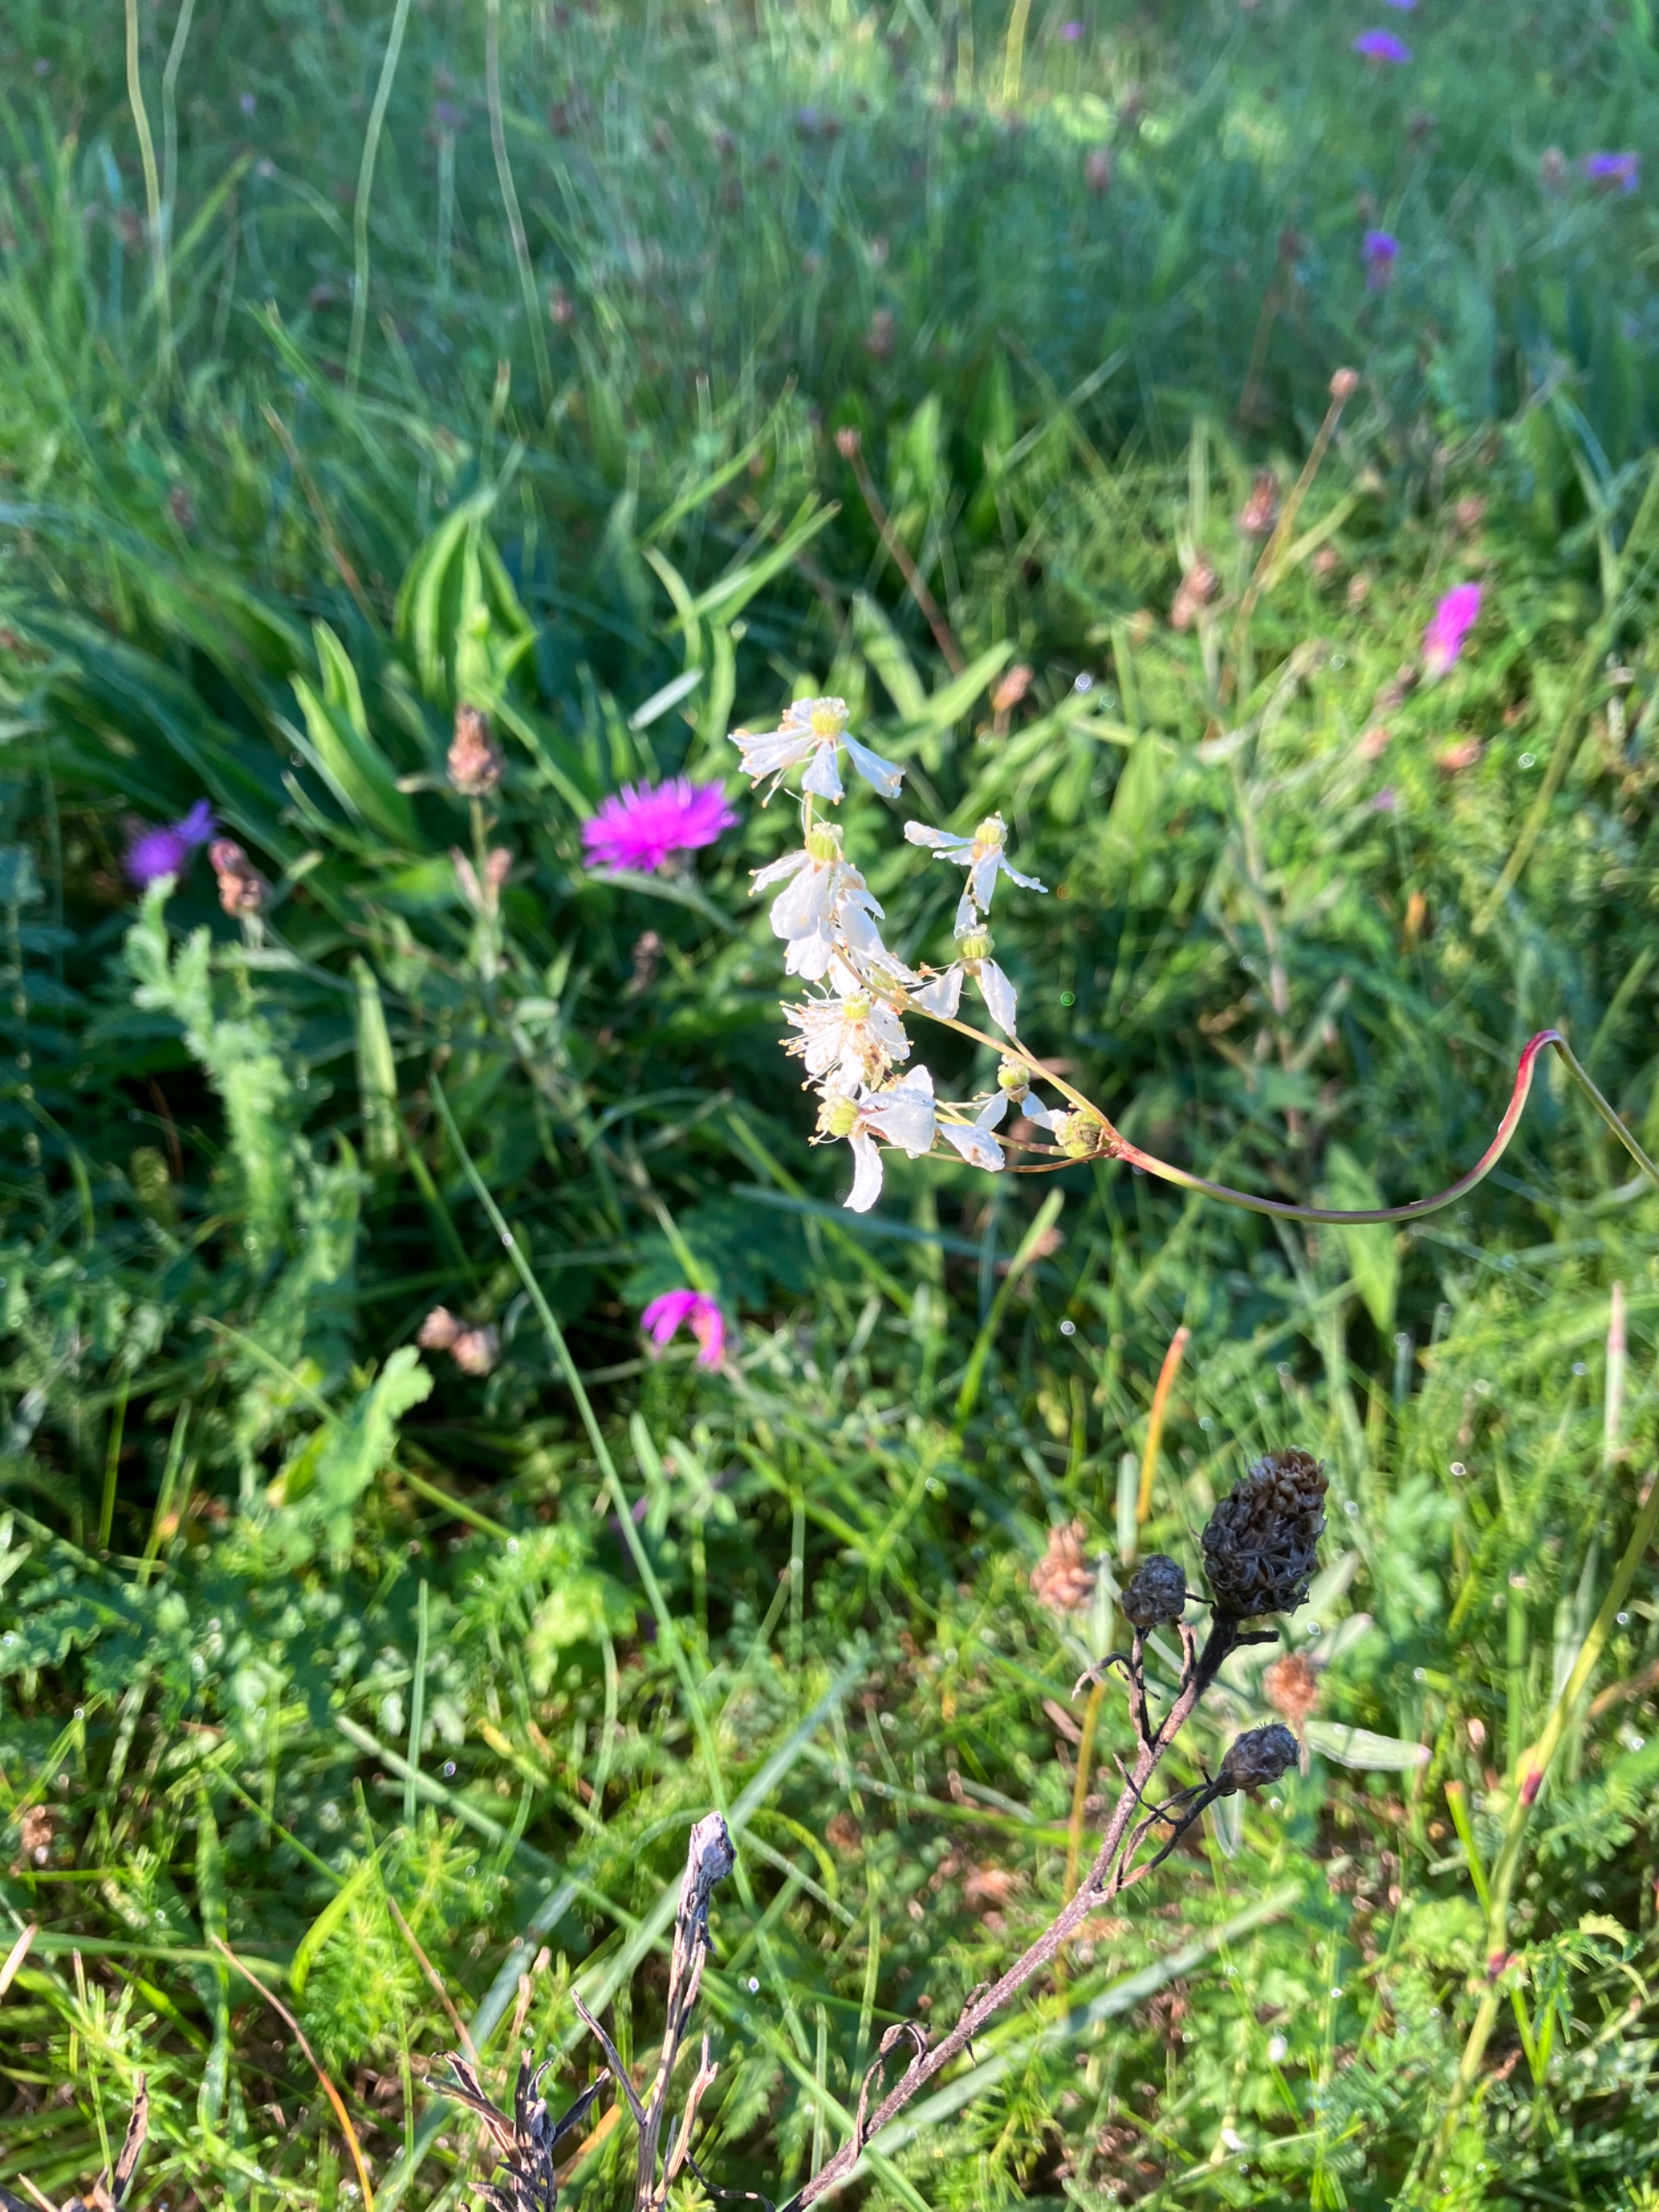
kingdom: Plantae
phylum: Tracheophyta
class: Magnoliopsida
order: Rosales
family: Rosaceae
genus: Filipendula
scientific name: Filipendula vulgaris
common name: Knoldet mjødurt
